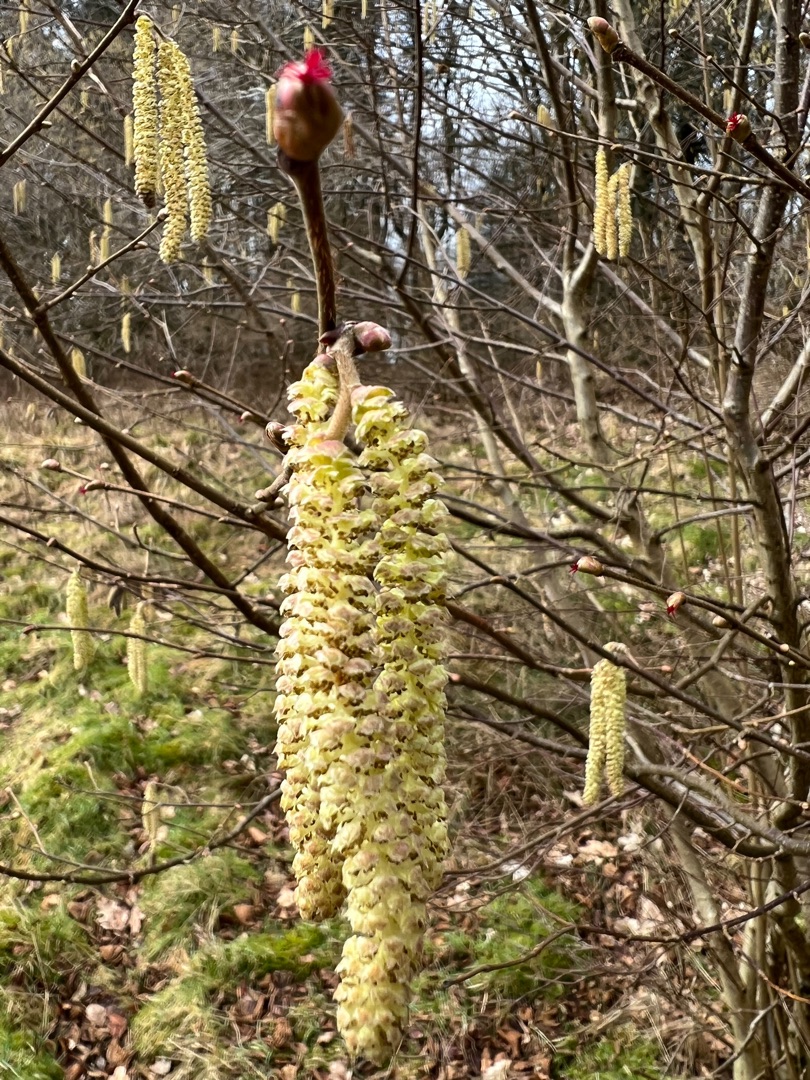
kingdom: Plantae
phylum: Tracheophyta
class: Magnoliopsida
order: Fagales
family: Betulaceae
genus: Corylus
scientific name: Corylus avellana
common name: Hassel
